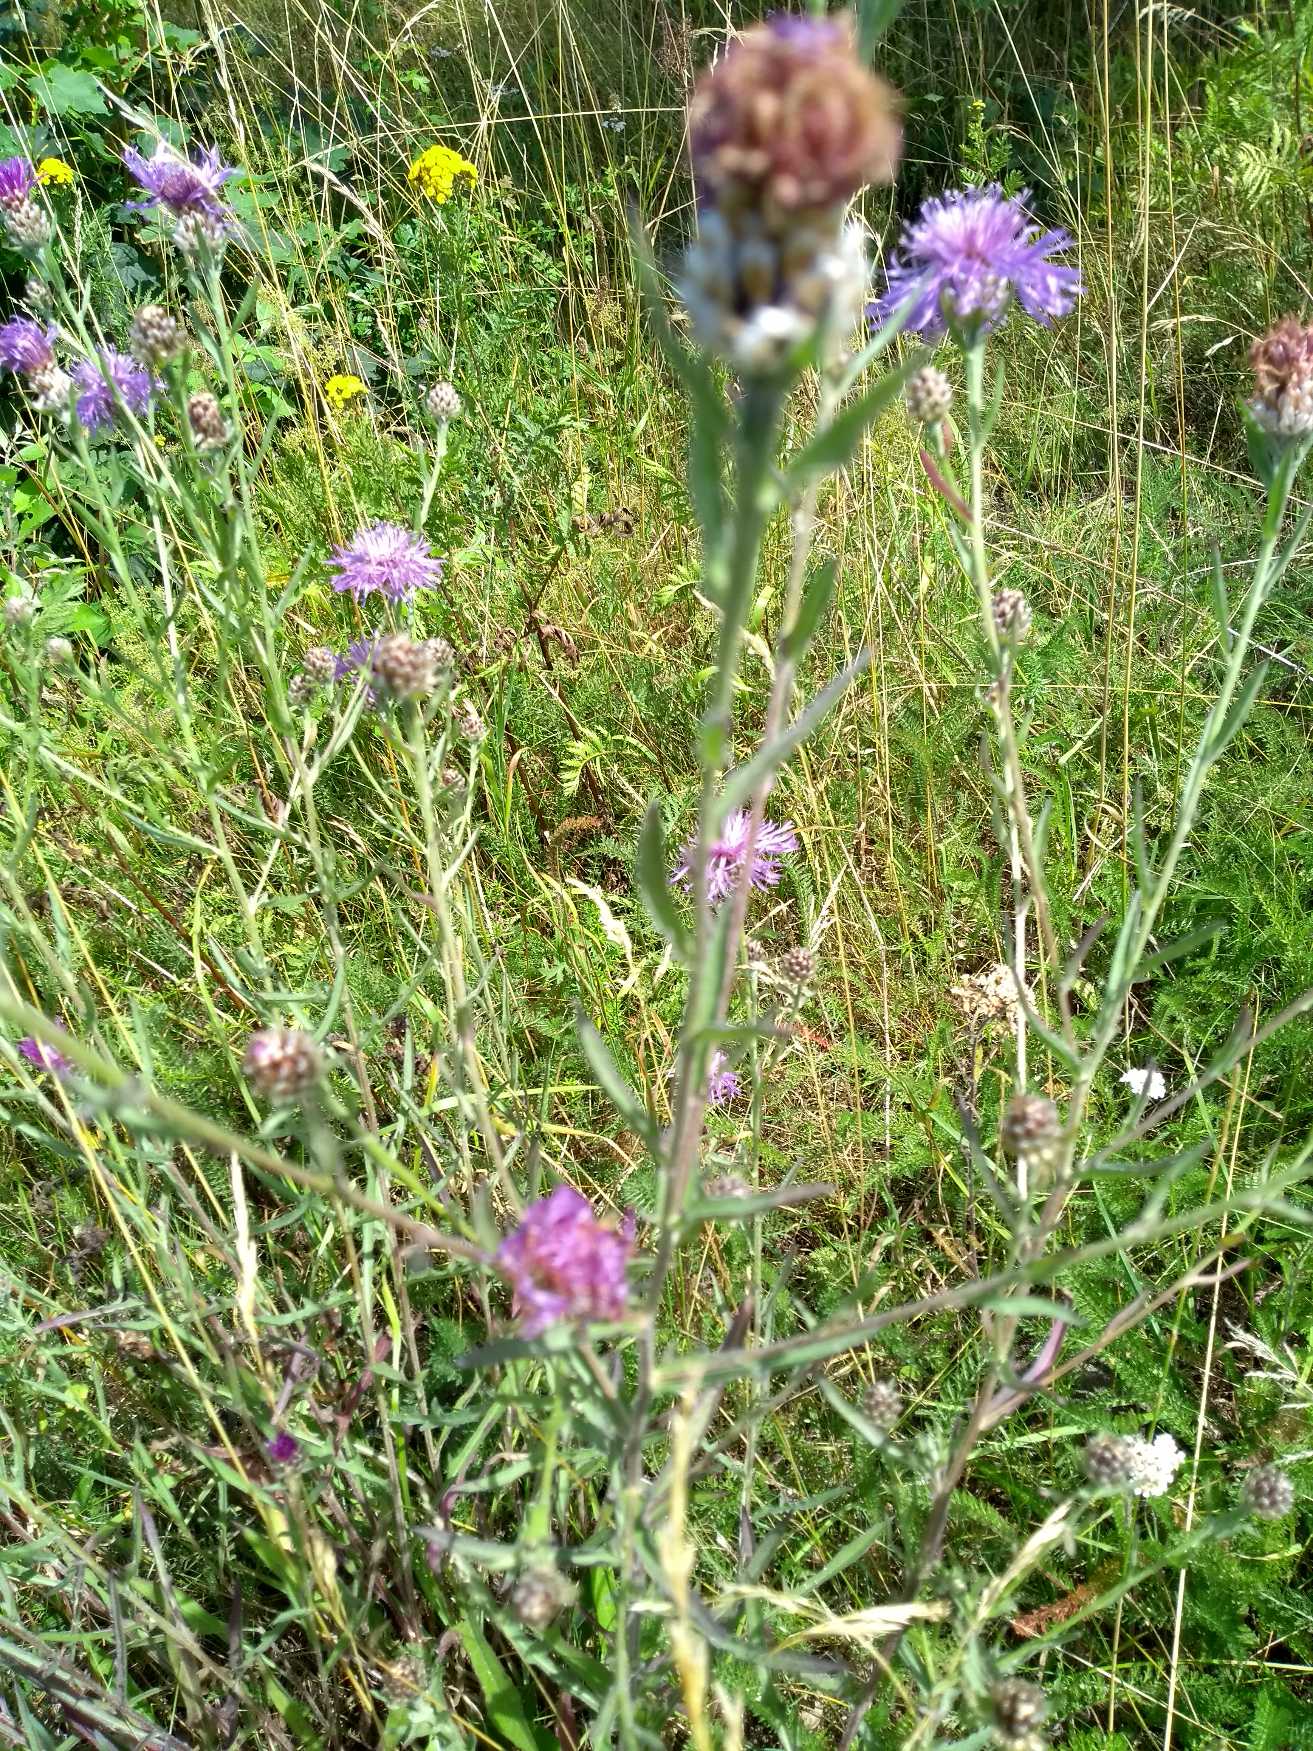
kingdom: Plantae
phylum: Tracheophyta
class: Magnoliopsida
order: Asterales
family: Asteraceae
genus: Centaurea
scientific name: Centaurea jacea
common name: Almindelig knopurt
